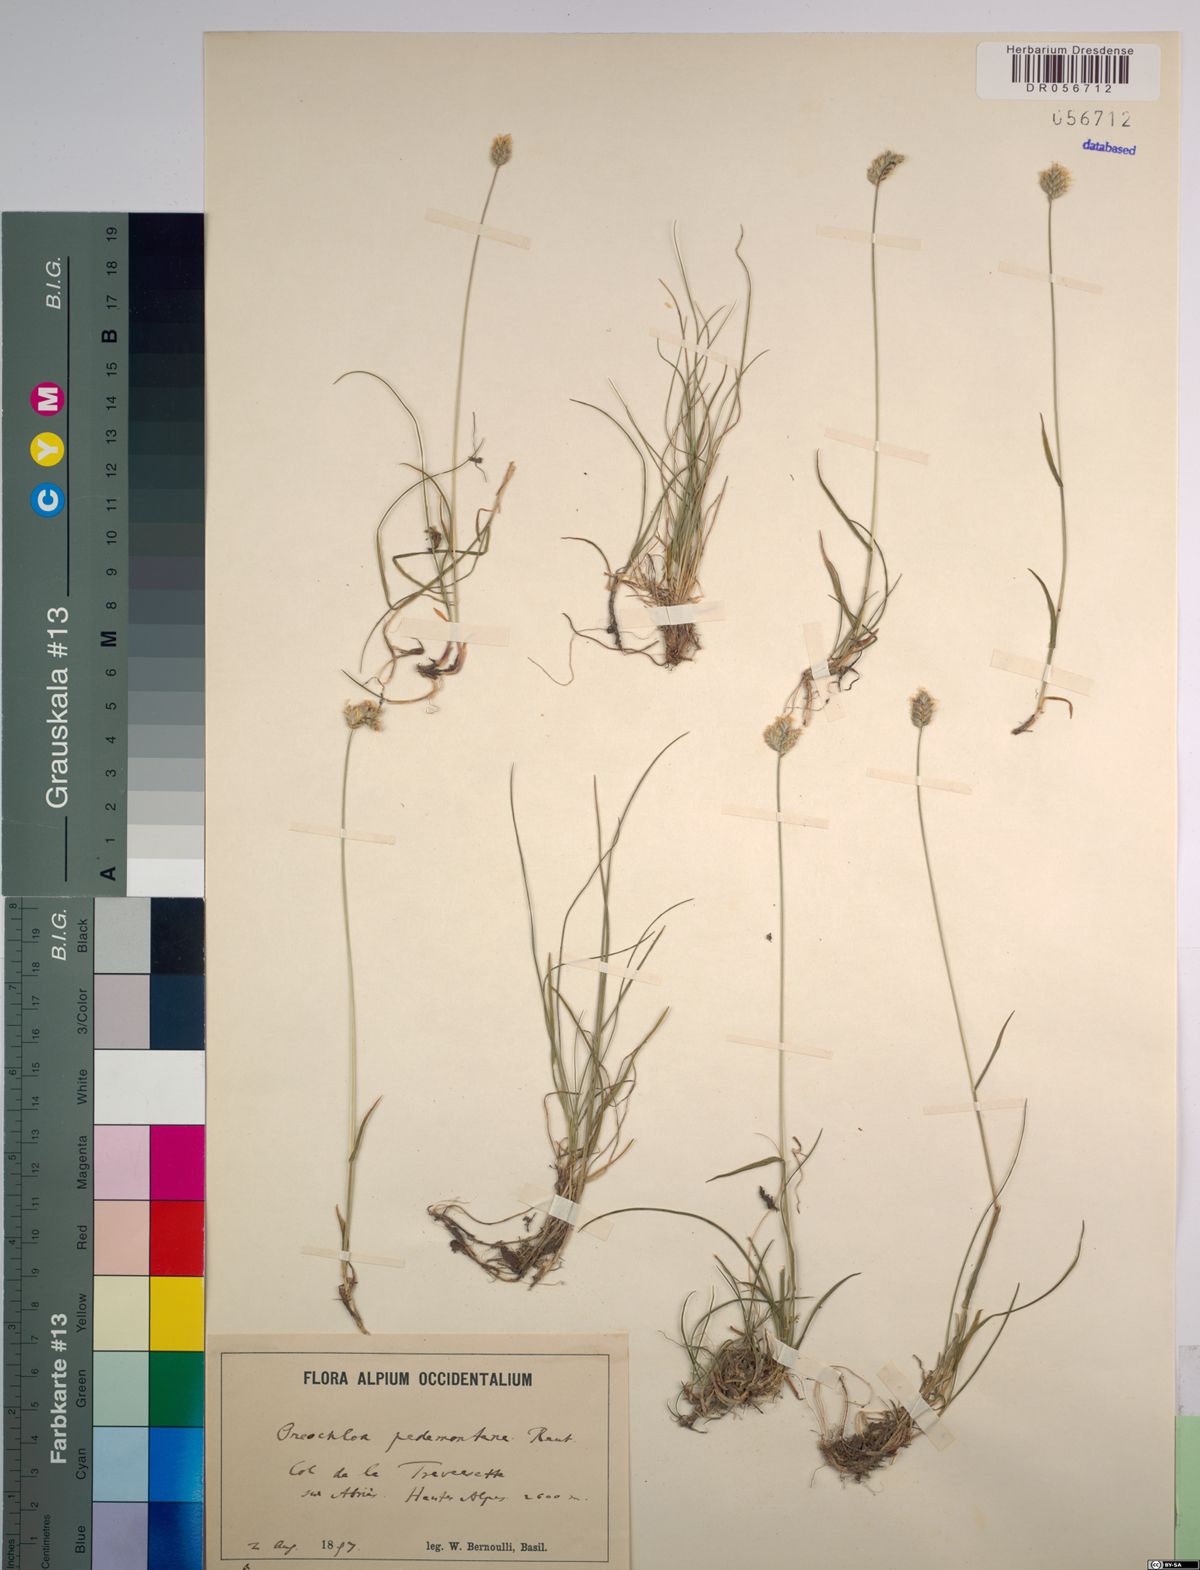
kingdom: Plantae
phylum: Tracheophyta
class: Liliopsida
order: Poales
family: Poaceae
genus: Oreochloa
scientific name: Oreochloa seslerioides
